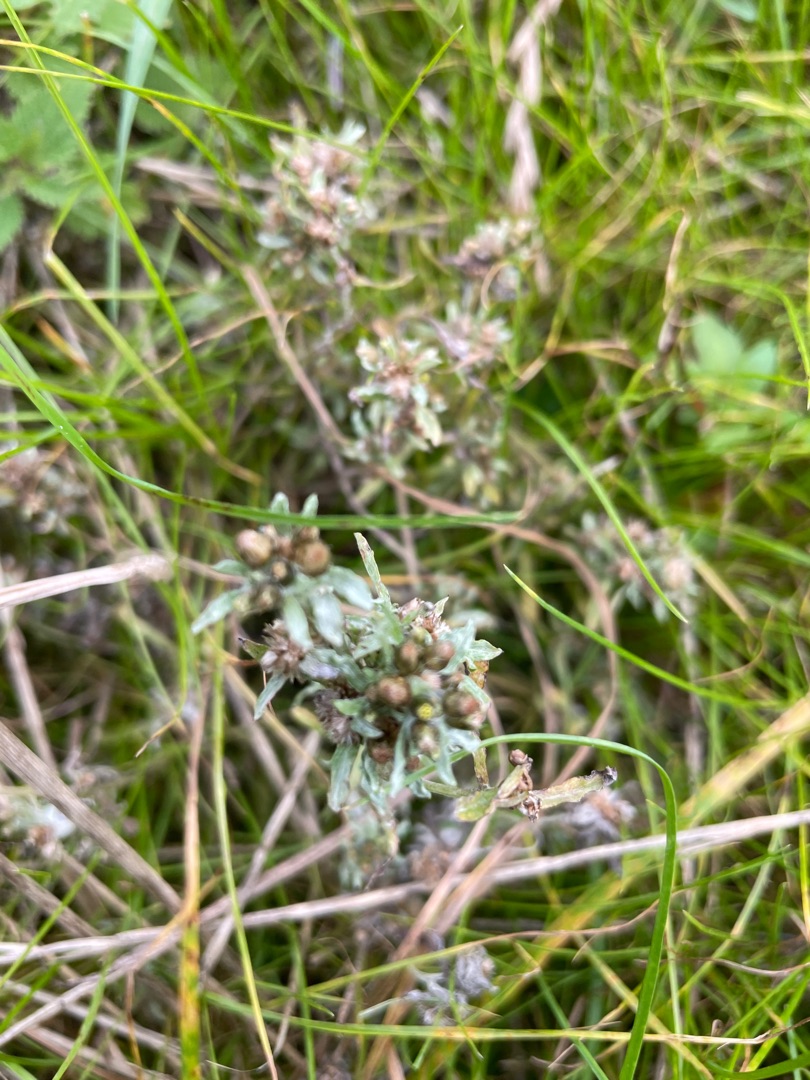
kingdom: Plantae
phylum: Tracheophyta
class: Magnoliopsida
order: Asterales
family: Asteraceae
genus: Gnaphalium
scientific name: Gnaphalium uliginosum
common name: Sump-evighedsblomst
